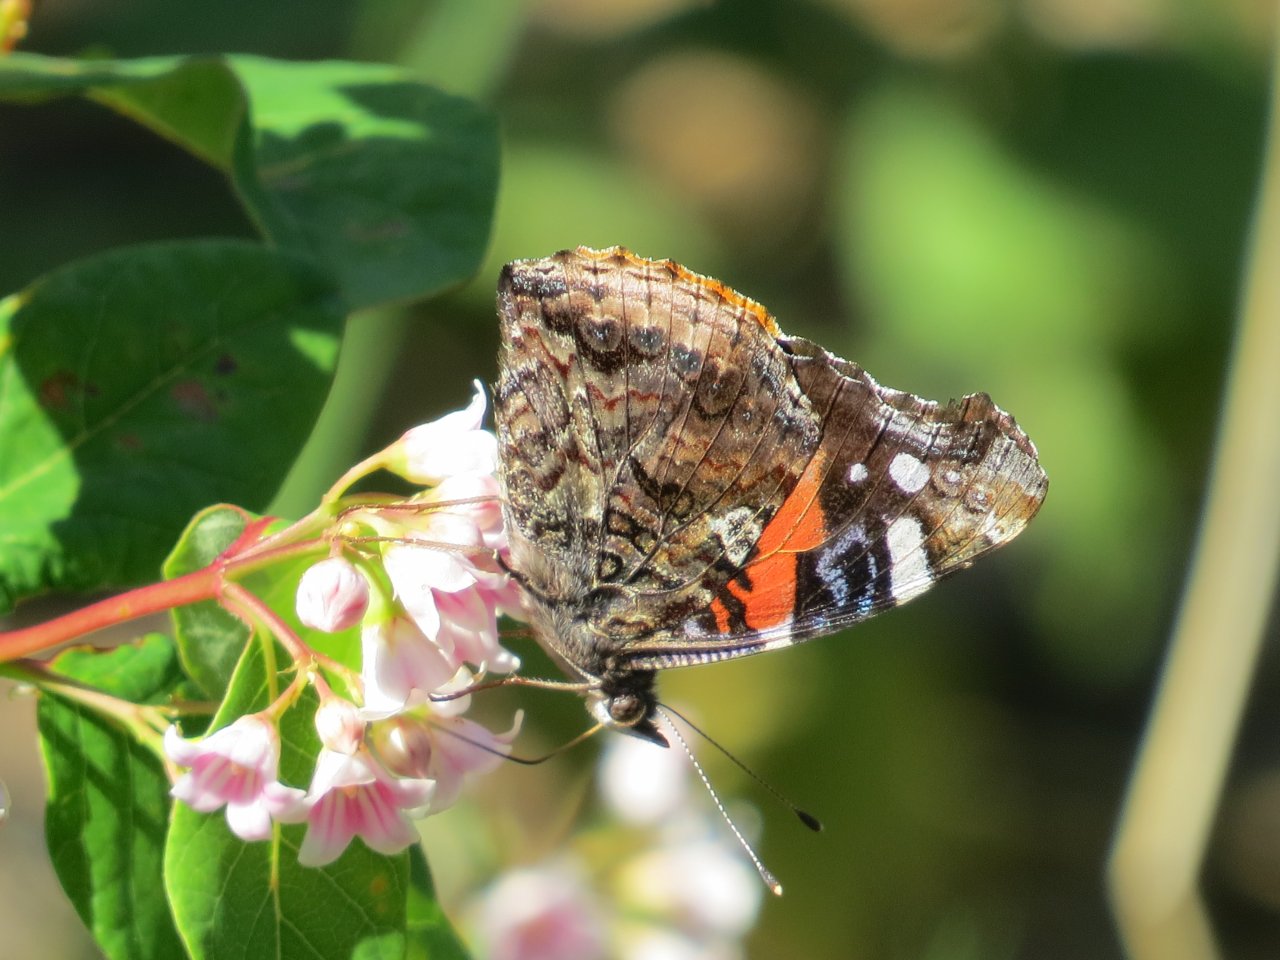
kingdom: Animalia
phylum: Arthropoda
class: Insecta
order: Lepidoptera
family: Nymphalidae
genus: Vanessa
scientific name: Vanessa atalanta
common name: Red Admiral
